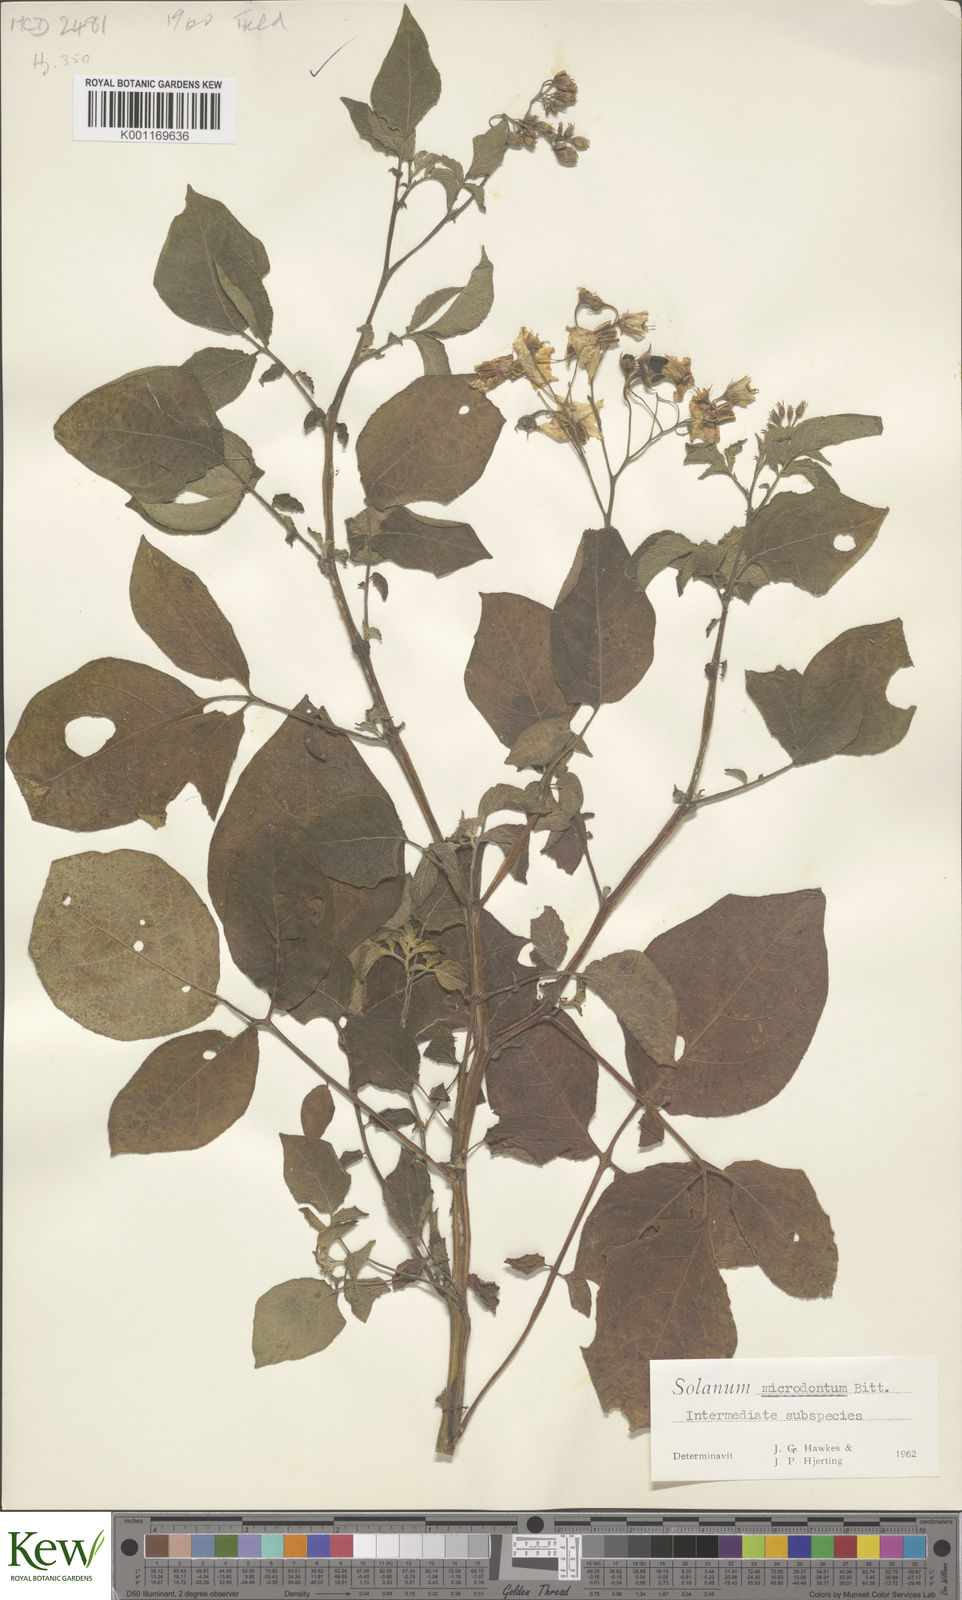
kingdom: Plantae
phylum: Tracheophyta
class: Magnoliopsida
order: Solanales
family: Solanaceae
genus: Solanum
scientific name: Solanum microdontum
